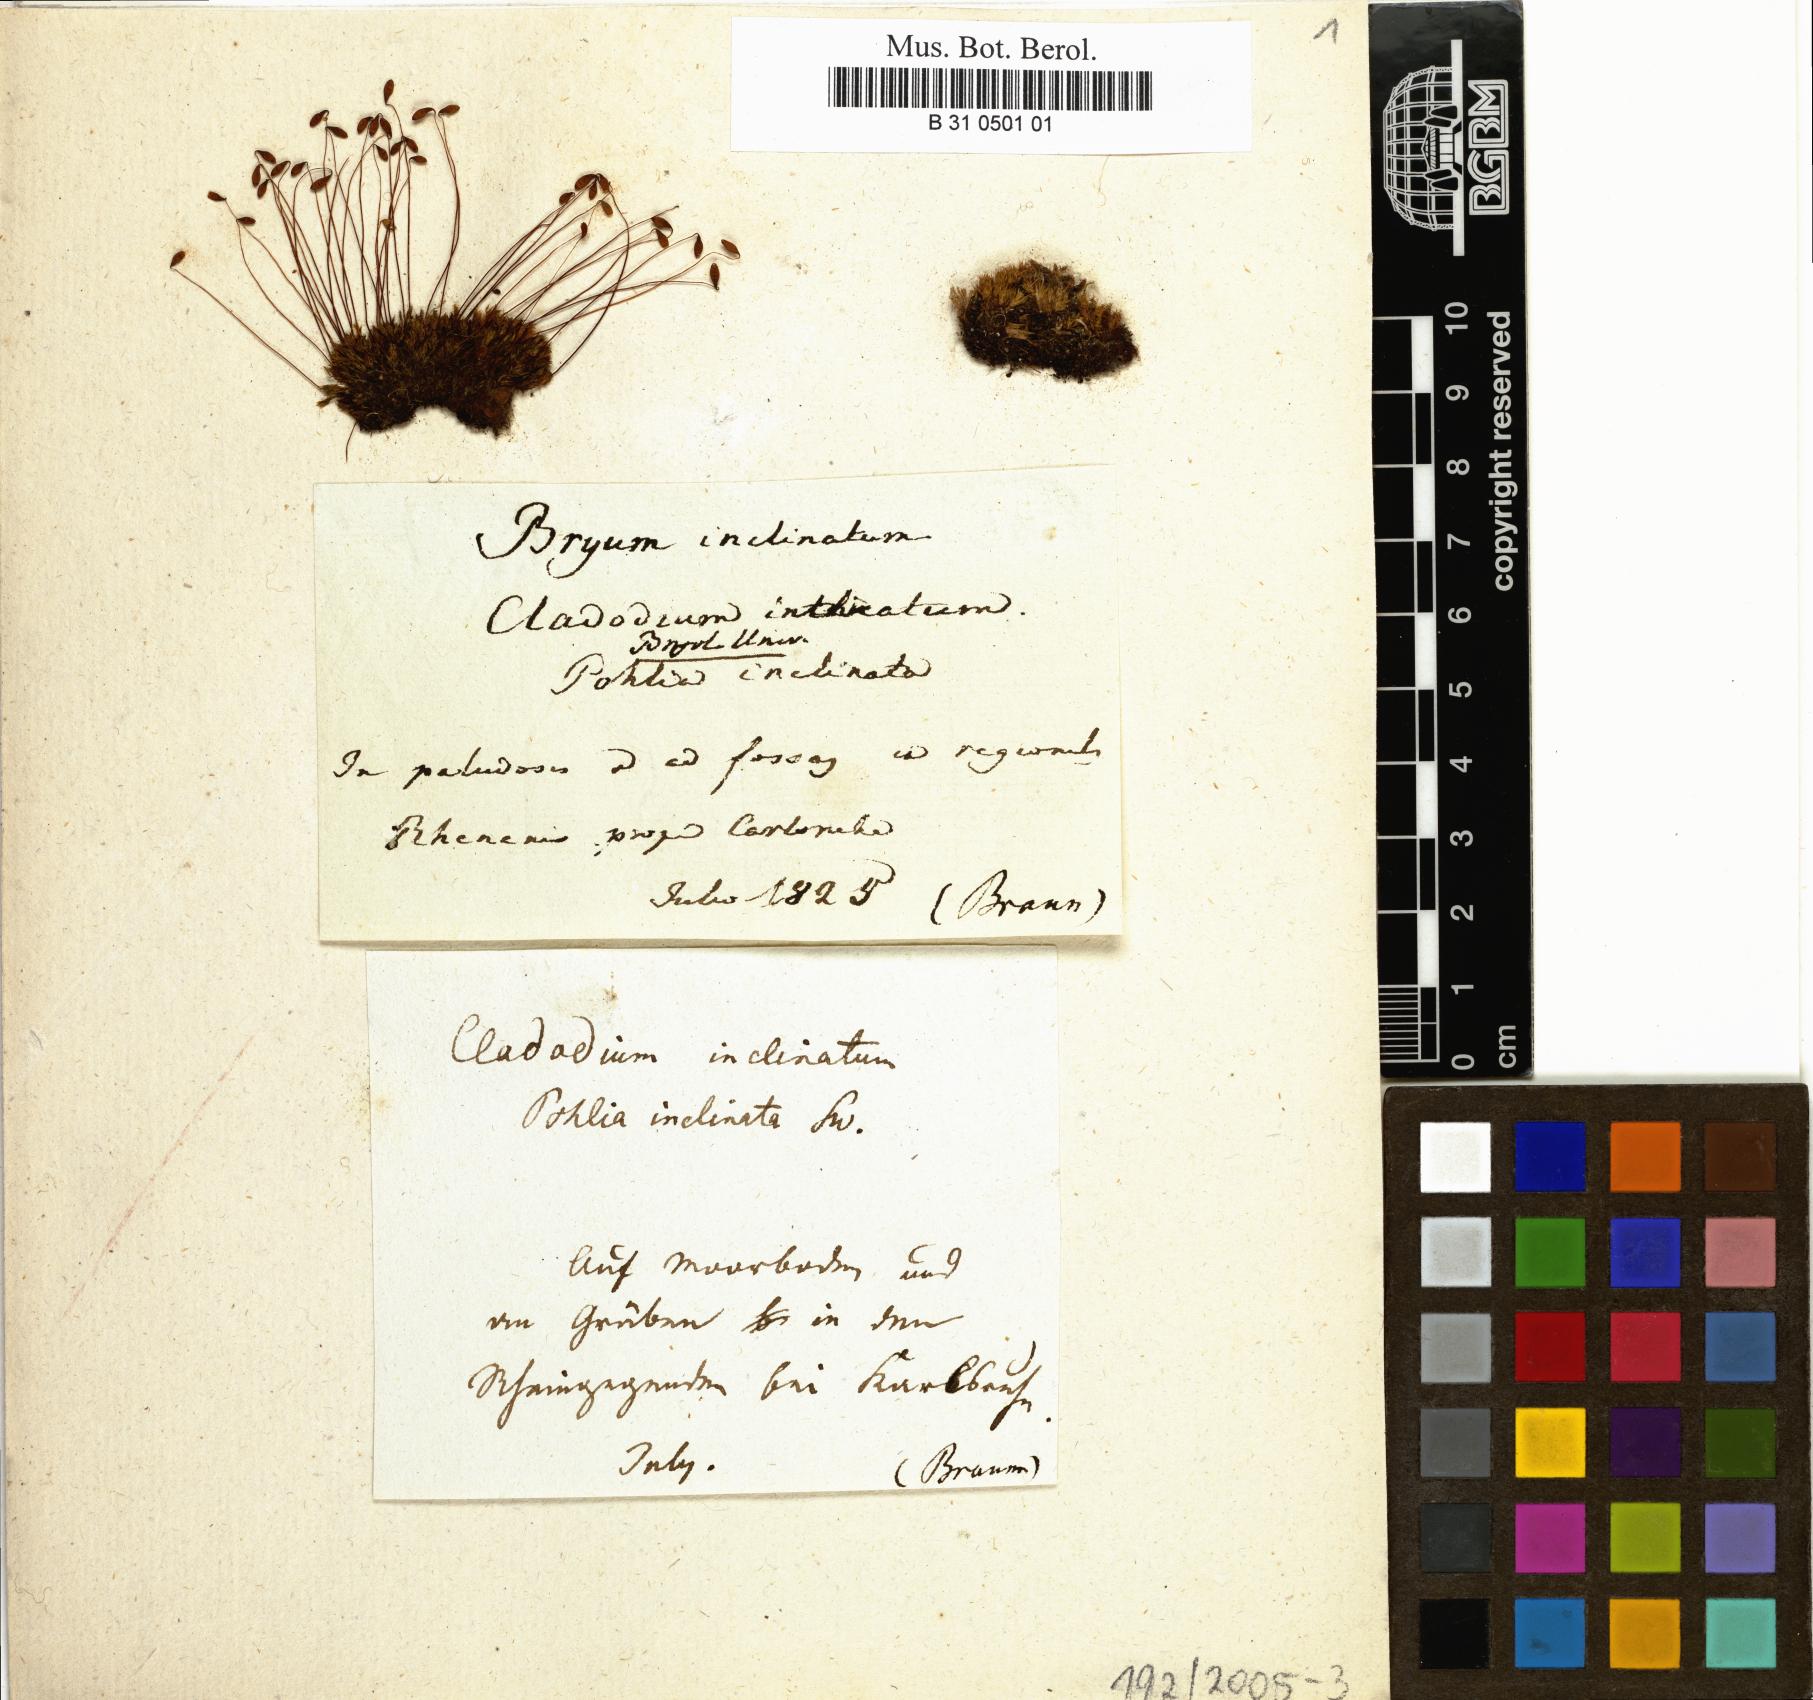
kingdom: Plantae
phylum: Bryophyta
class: Bryopsida
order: Bryales
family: Bryaceae
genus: Ptychostomum
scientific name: Ptychostomum inclinatum
